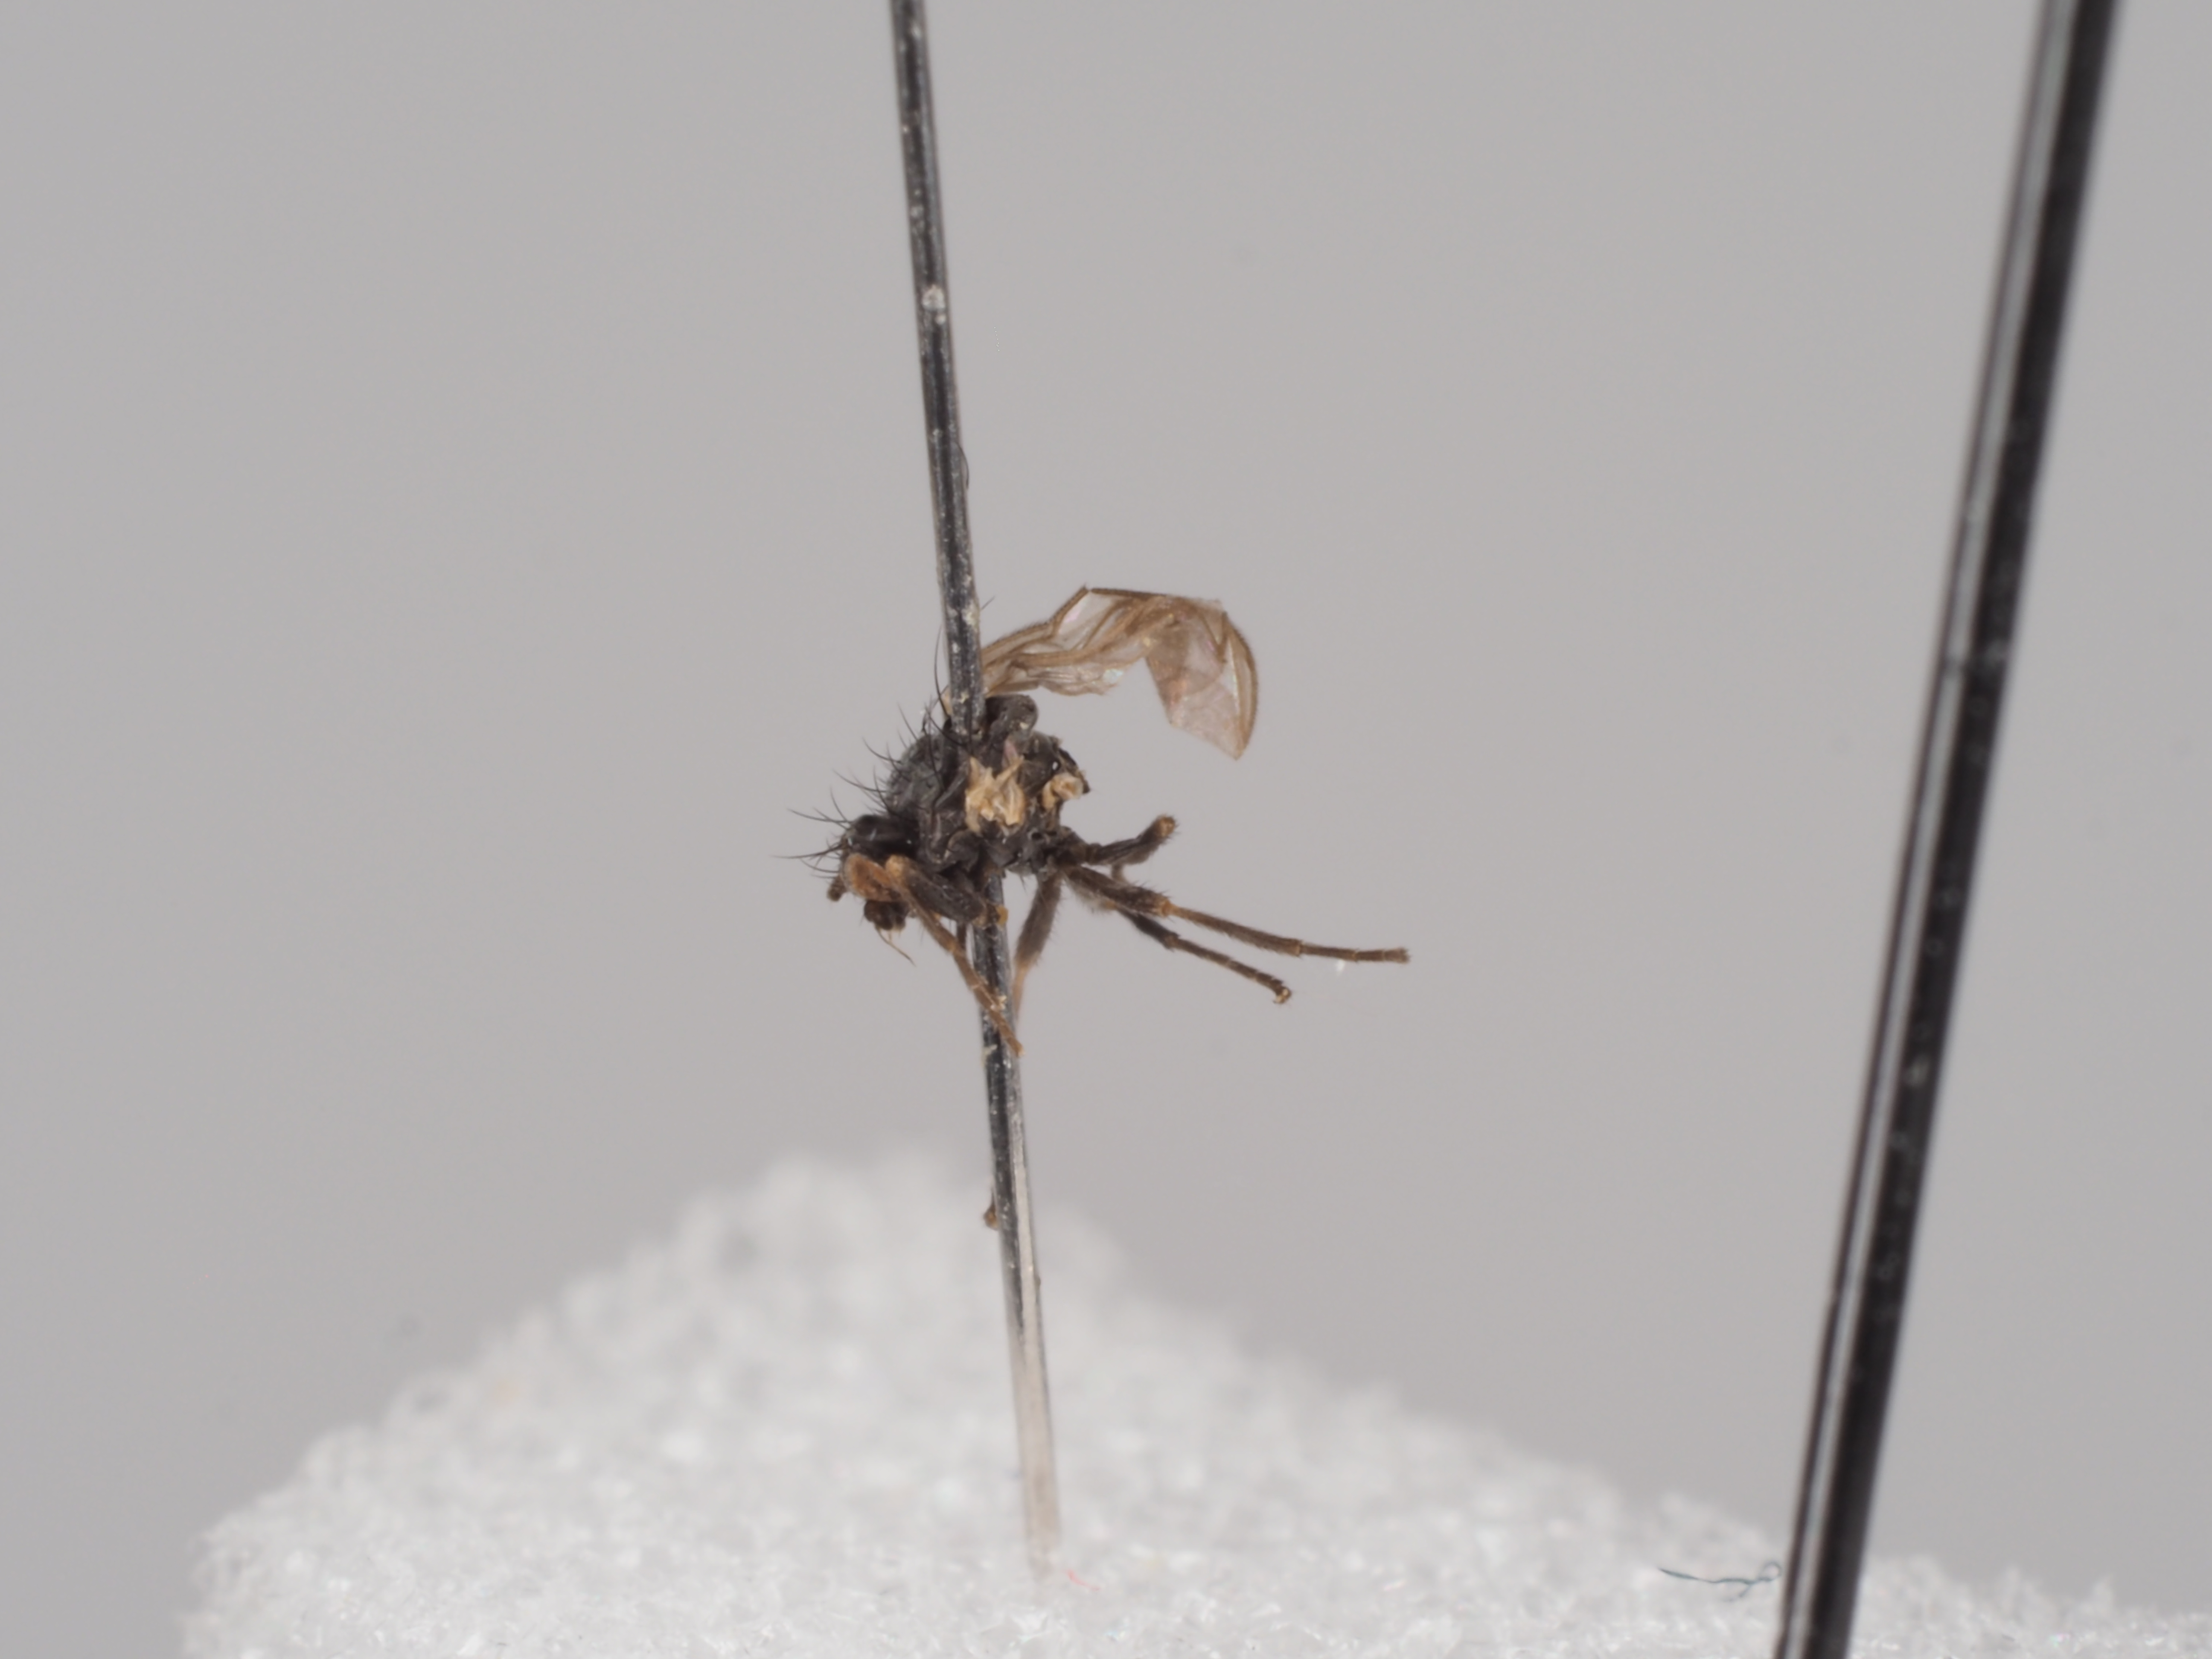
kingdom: Animalia
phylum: Arthropoda
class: Insecta
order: Diptera
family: Agromyzidae
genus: Phytomyza
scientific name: Phytomyza virgaureae
